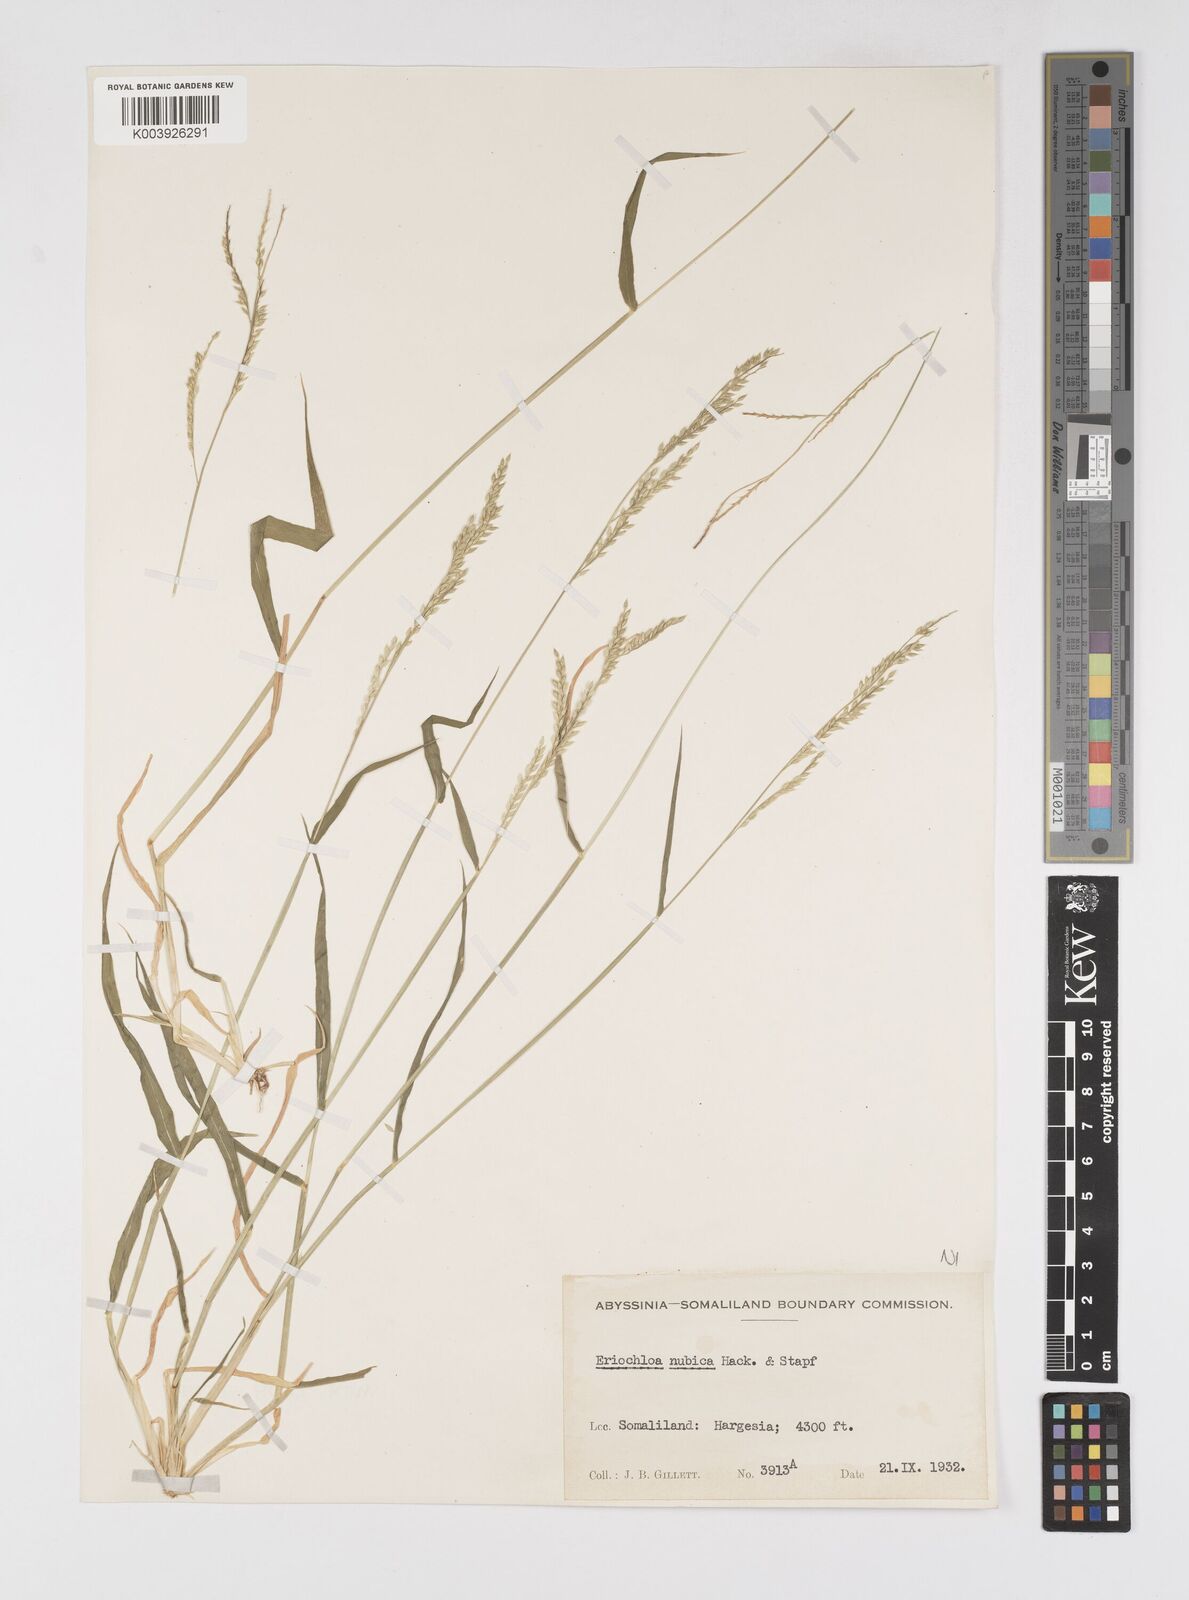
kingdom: Plantae
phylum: Tracheophyta
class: Liliopsida
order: Poales
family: Poaceae
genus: Eriochloa
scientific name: Eriochloa barbatus
